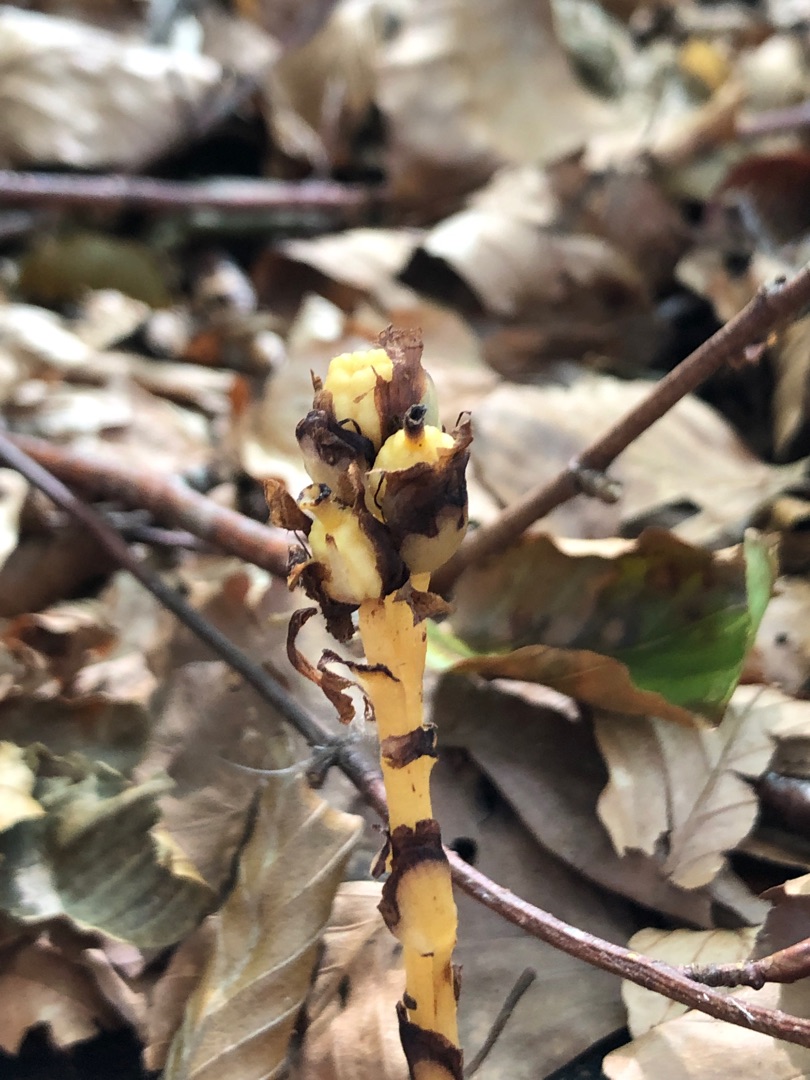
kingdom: Plantae
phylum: Tracheophyta
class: Magnoliopsida
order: Ericales
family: Ericaceae
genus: Hypopitys
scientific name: Hypopitys monotropa
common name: Snylterod
